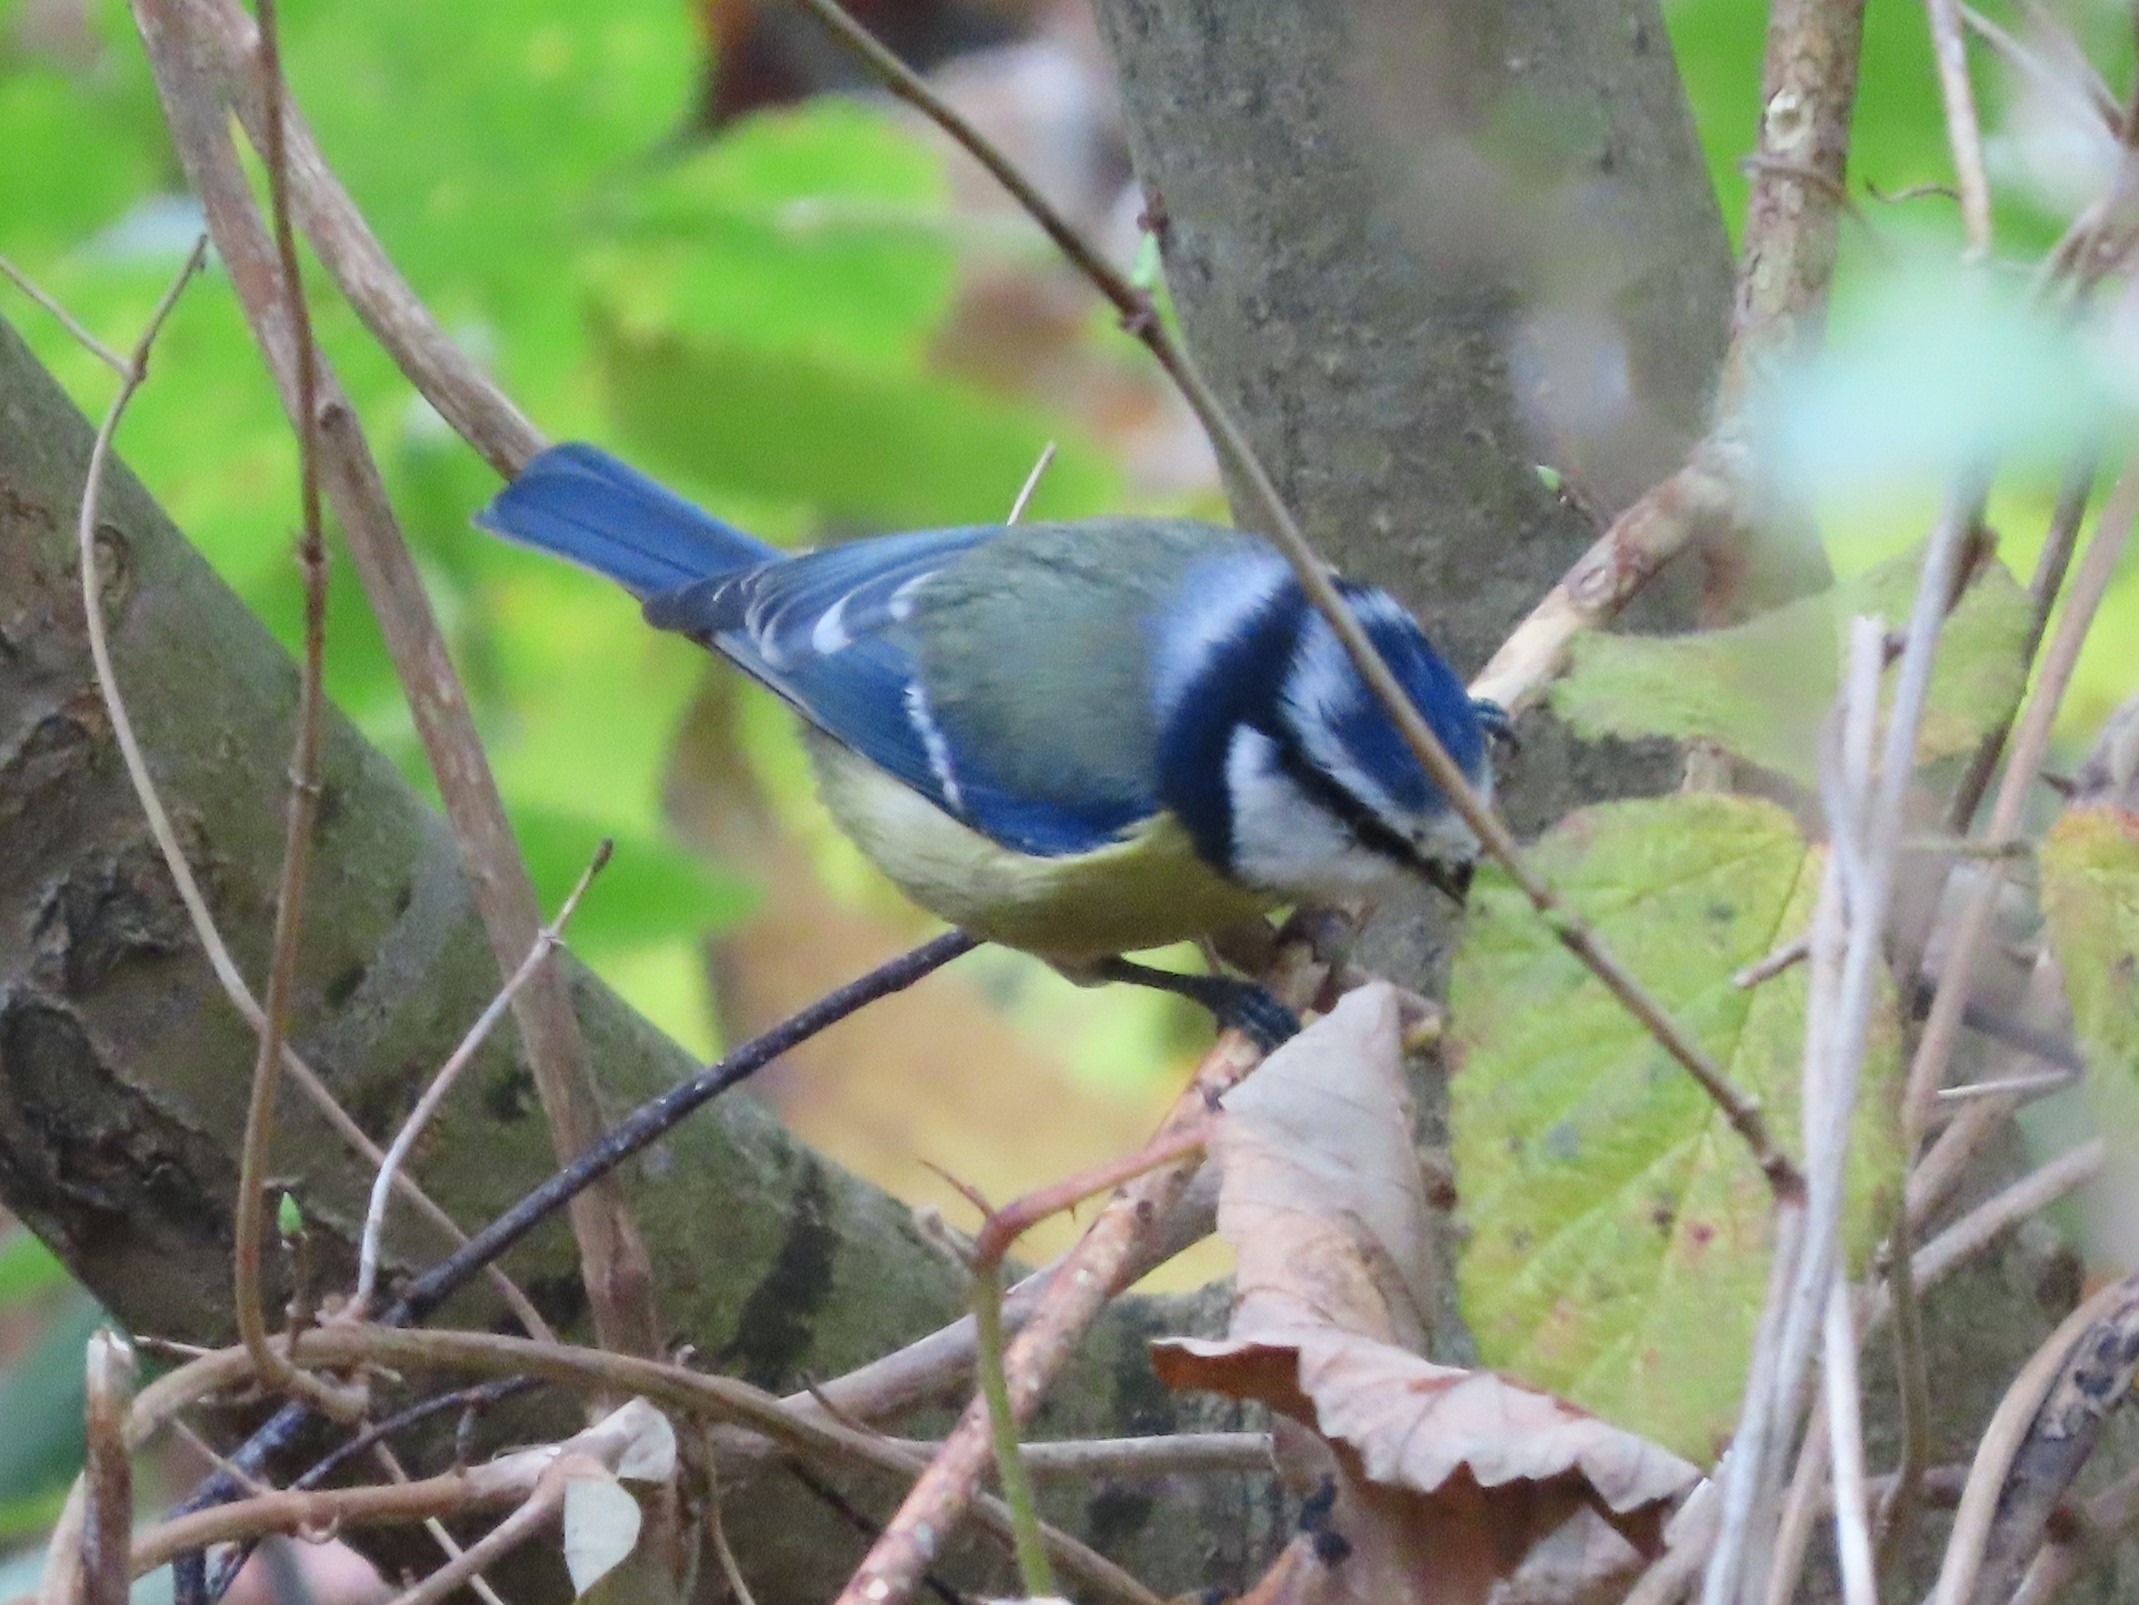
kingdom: Animalia
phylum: Chordata
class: Aves
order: Passeriformes
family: Paridae
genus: Cyanistes
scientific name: Cyanistes caeruleus
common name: Blåmejse
